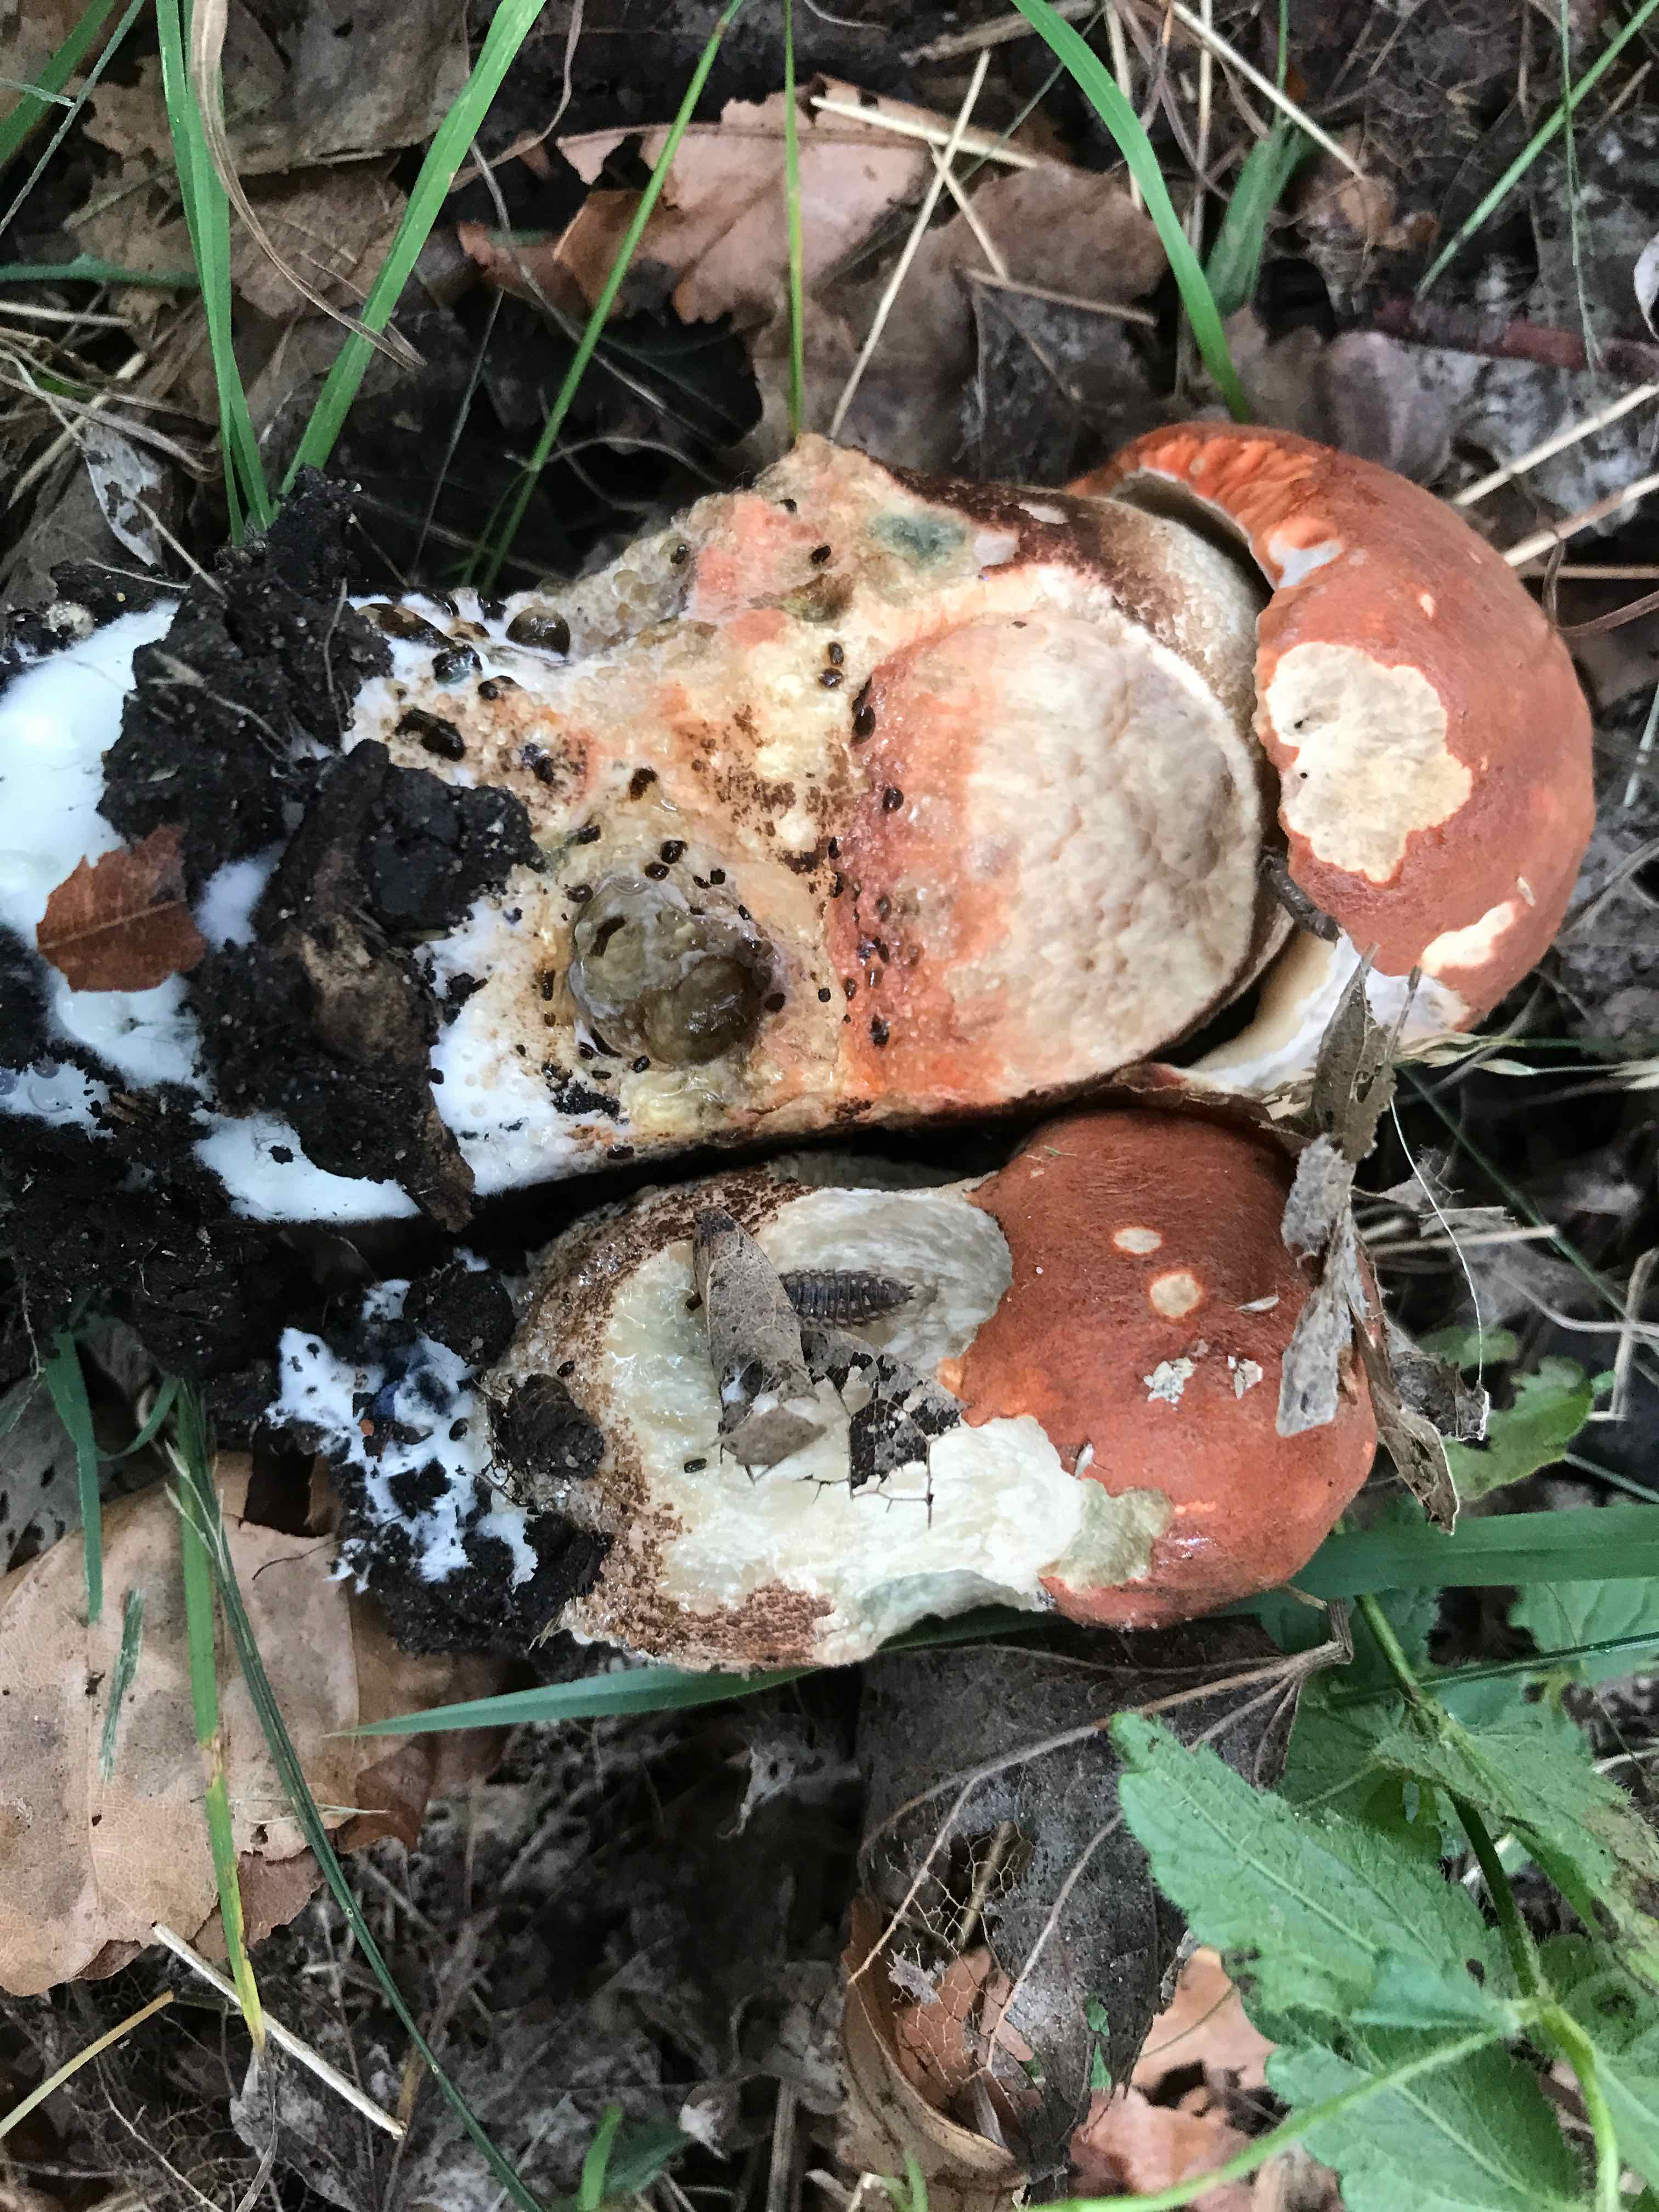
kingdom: Fungi
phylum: Basidiomycota
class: Agaricomycetes
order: Boletales
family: Boletaceae
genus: Leccinum
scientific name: Leccinum aurantiacum
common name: rustrød skælrørhat
